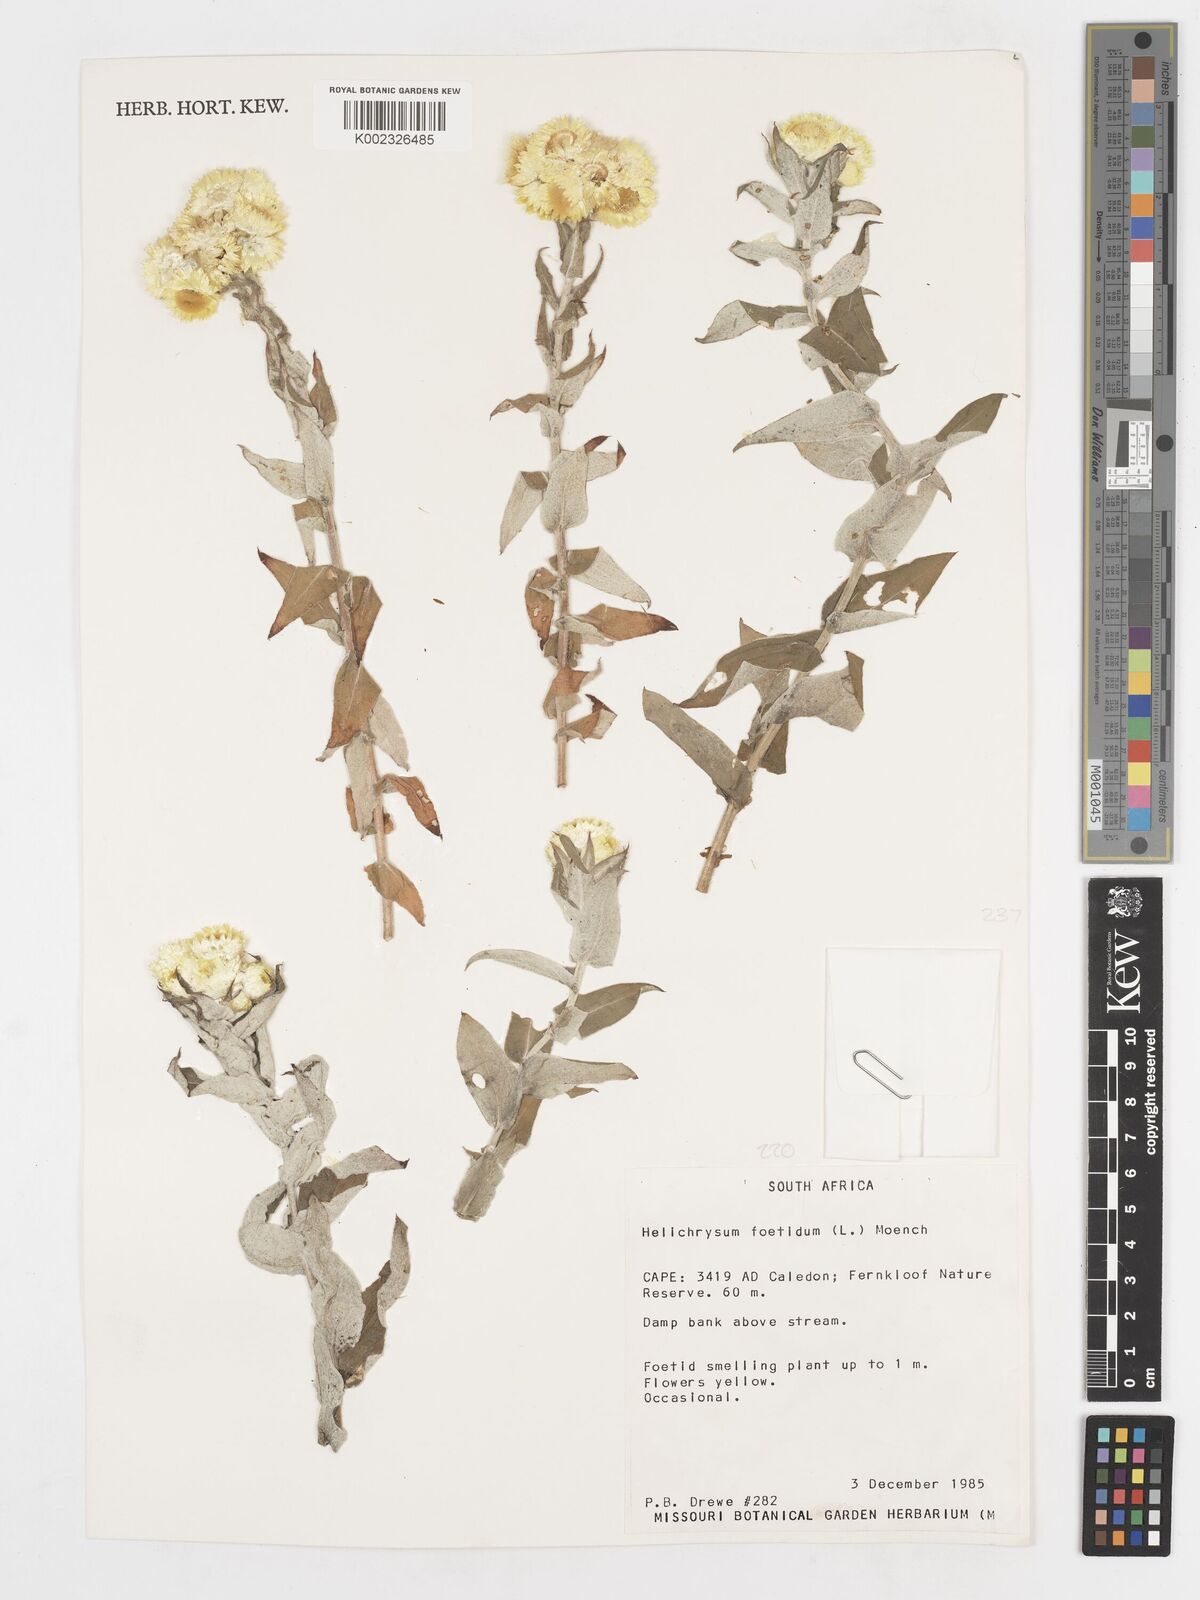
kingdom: Plantae
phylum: Tracheophyta
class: Magnoliopsida
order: Asterales
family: Asteraceae
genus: Helichrysum
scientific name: Helichrysum foetidum
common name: Stinking everlasting
